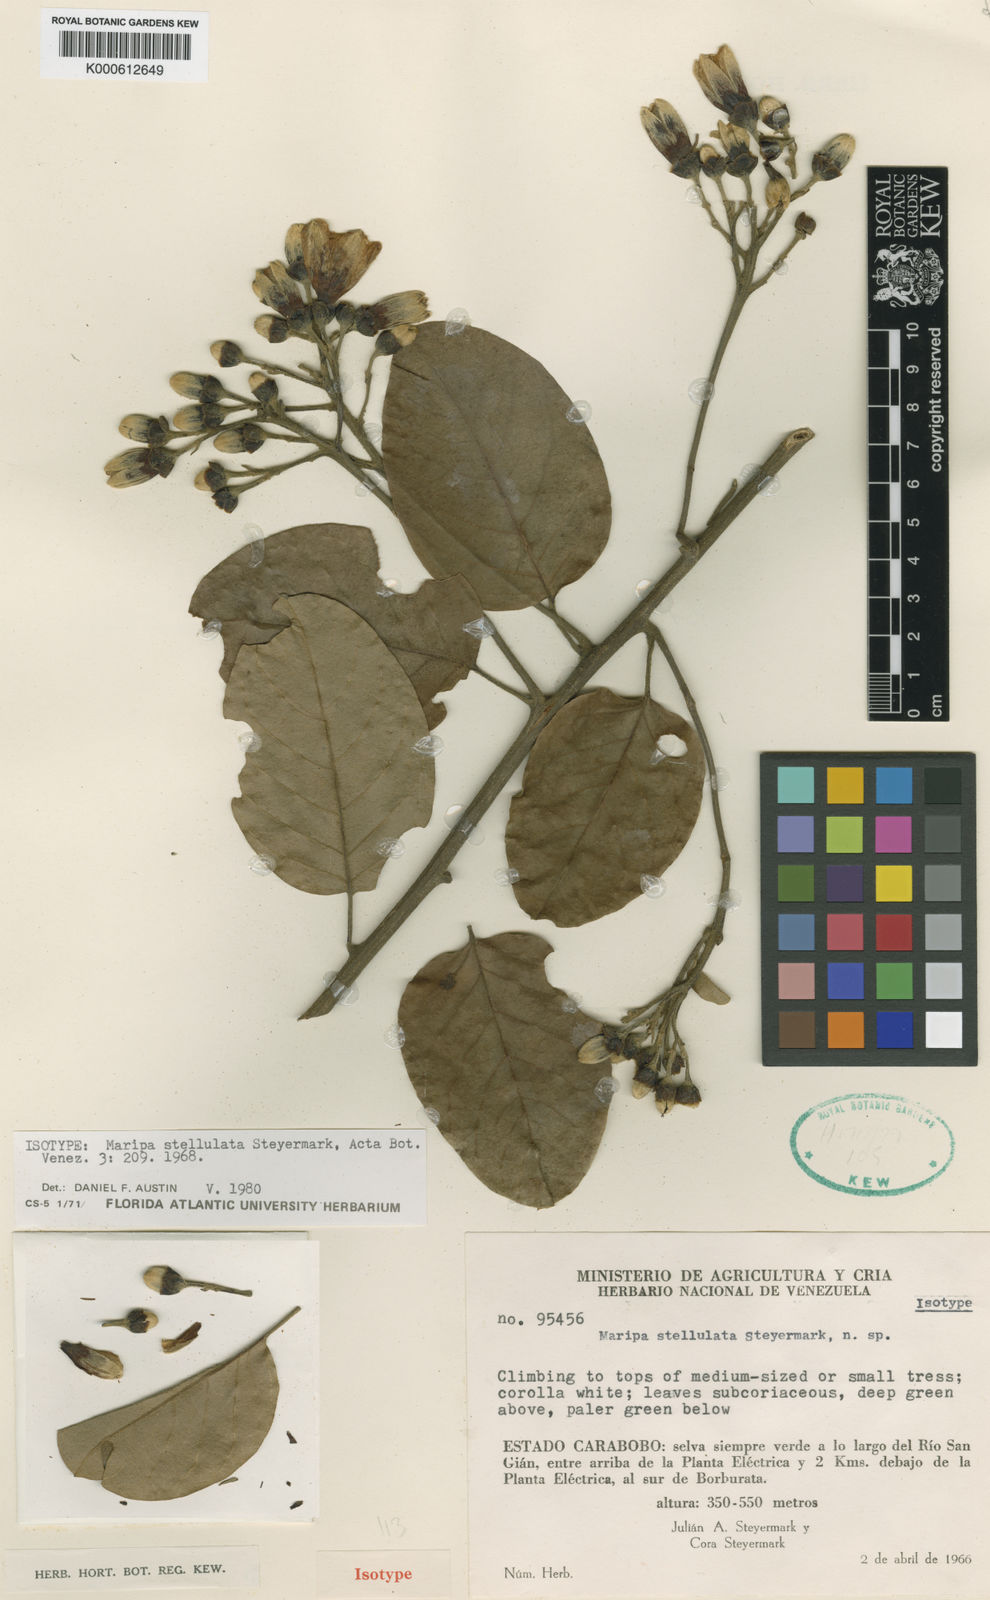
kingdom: Plantae
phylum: Tracheophyta
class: Magnoliopsida
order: Solanales
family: Convolvulaceae
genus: Maripa
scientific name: Maripa stellulata
